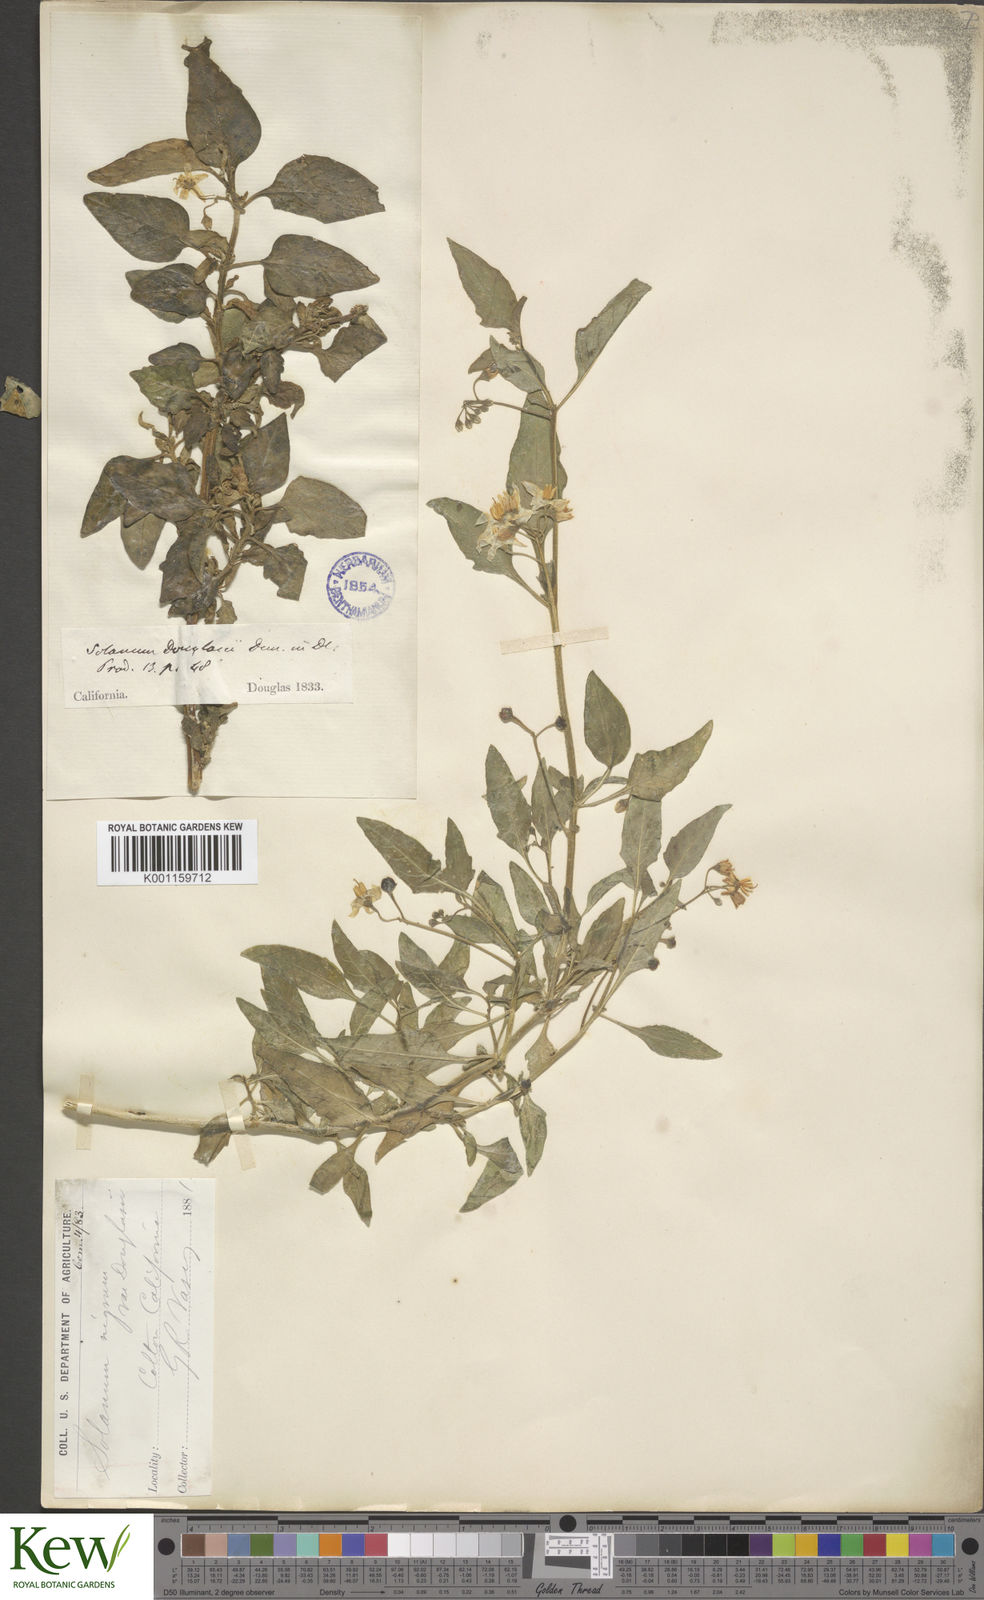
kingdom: Plantae
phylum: Tracheophyta
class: Magnoliopsida
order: Solanales
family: Solanaceae
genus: Solanum
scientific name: Solanum nigrum
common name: Black nightshade
